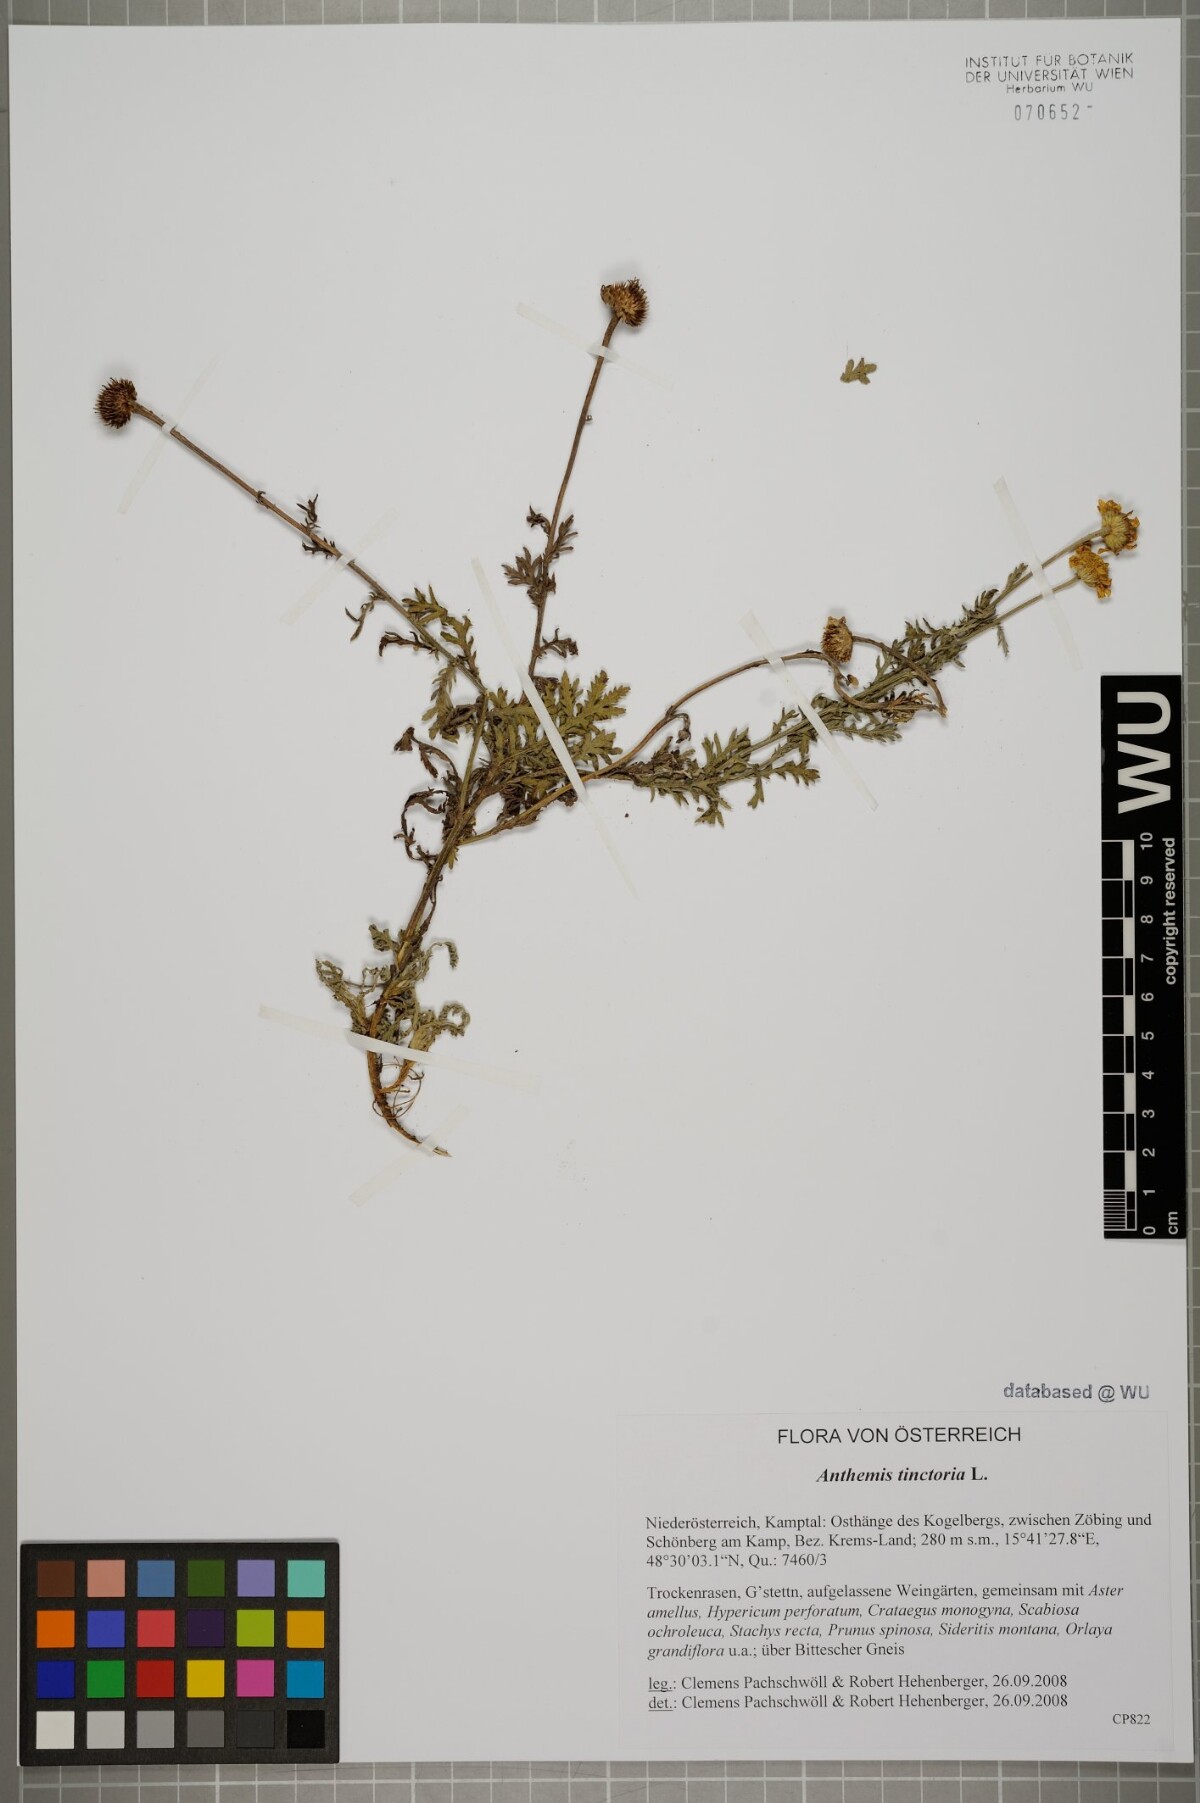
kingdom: Plantae
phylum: Tracheophyta
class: Magnoliopsida
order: Asterales
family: Asteraceae
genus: Cota
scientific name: Cota tinctoria
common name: Golden chamomile
